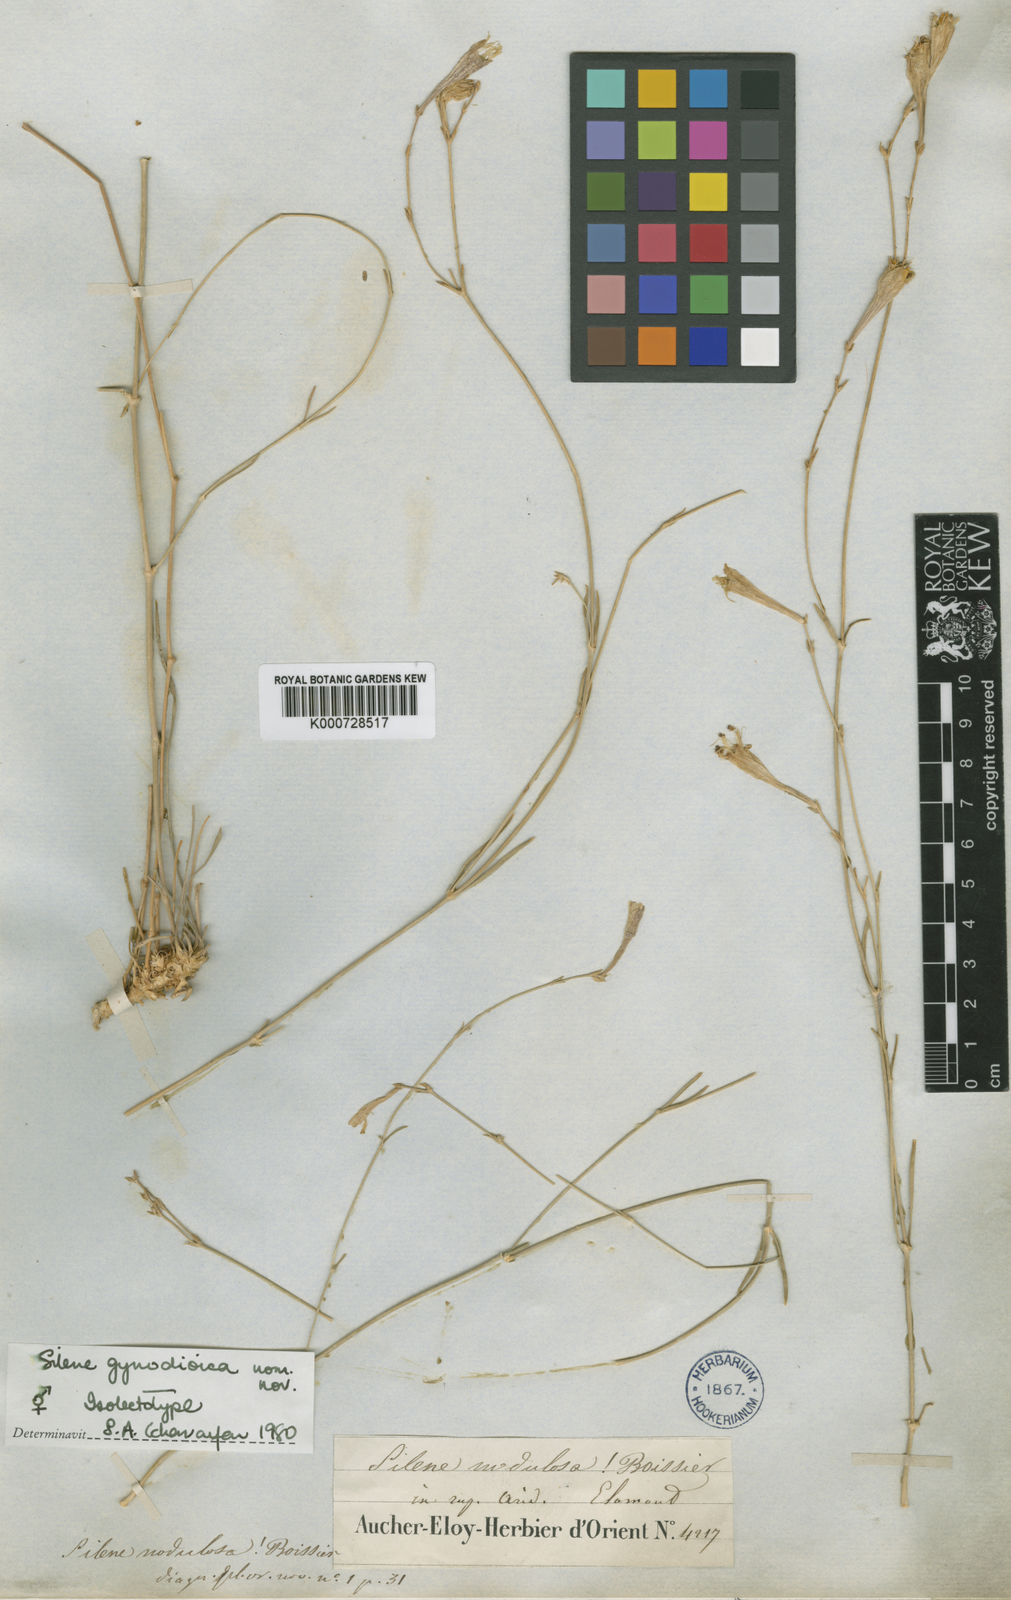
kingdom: Plantae
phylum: Tracheophyta
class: Magnoliopsida
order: Caryophyllales
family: Caryophyllaceae
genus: Silene
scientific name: Silene gynodioica
